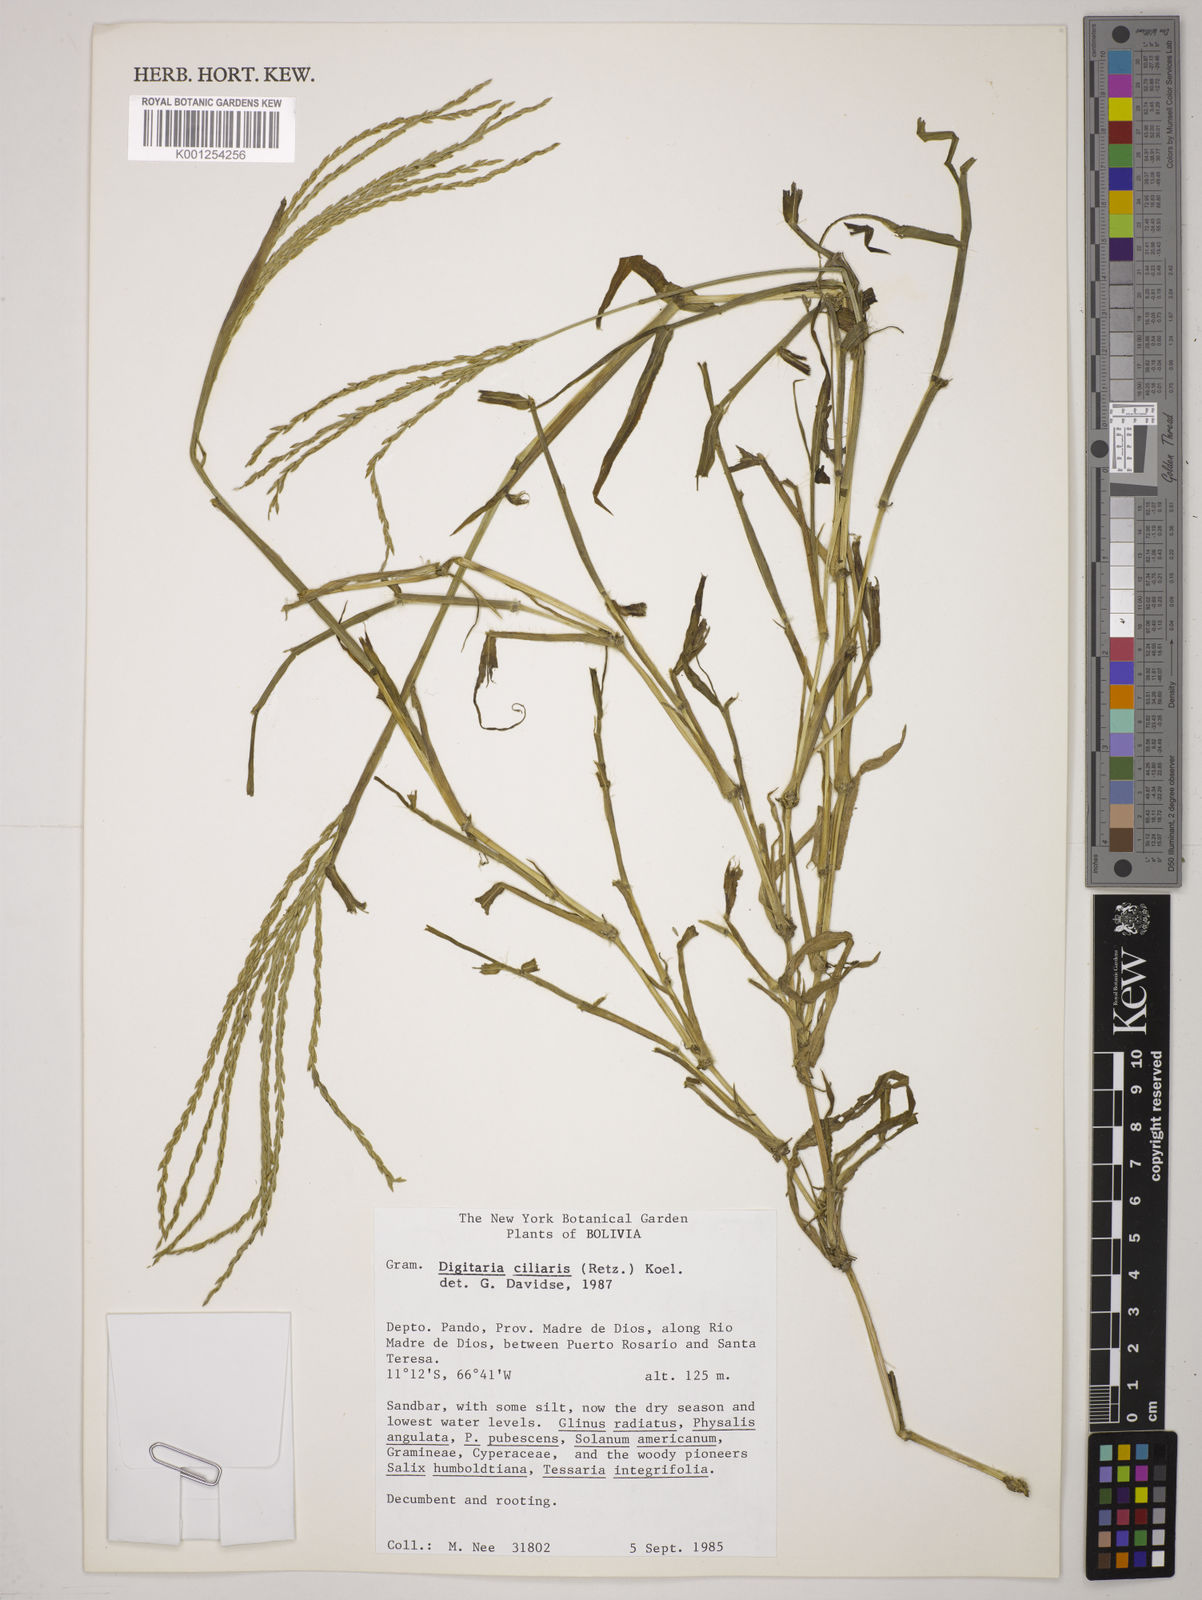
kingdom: Plantae
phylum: Tracheophyta
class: Liliopsida
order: Poales
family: Poaceae
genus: Digitaria
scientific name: Digitaria
